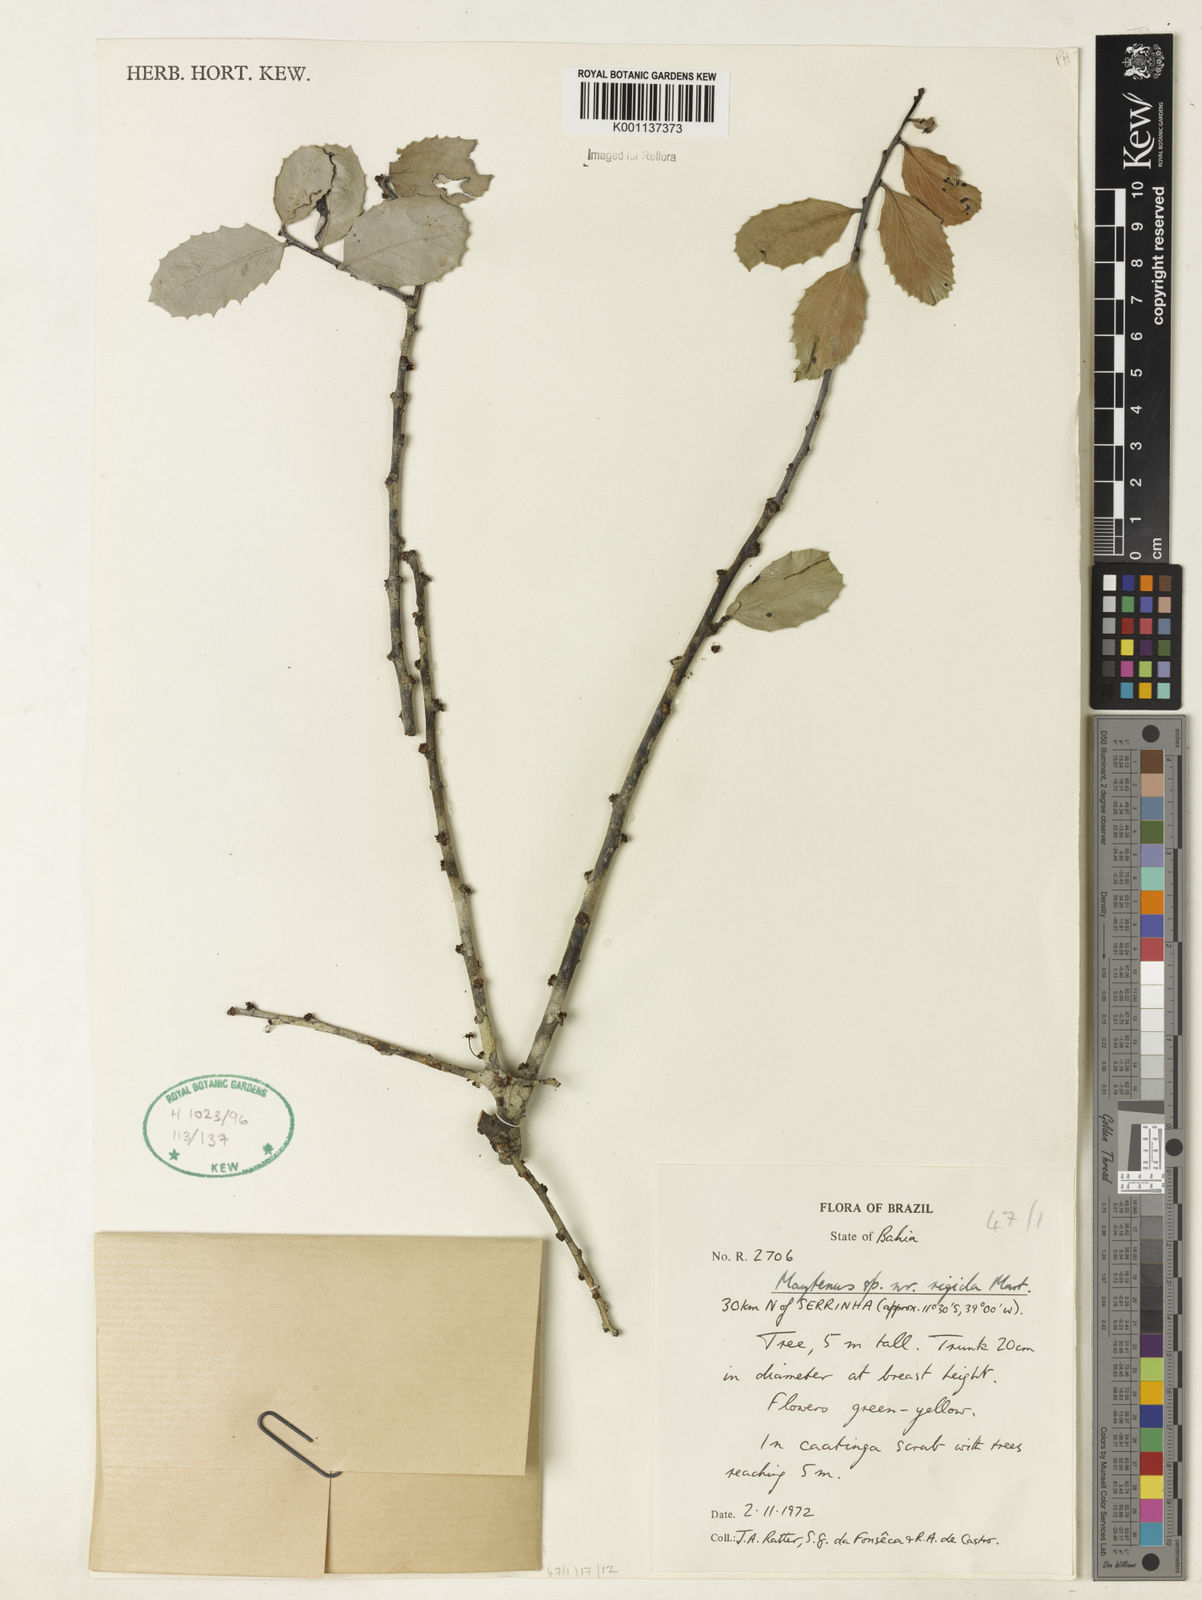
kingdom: Plantae
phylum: Tracheophyta
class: Magnoliopsida
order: Celastrales
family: Celastraceae
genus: Monteverdia
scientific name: Monteverdia rigida
